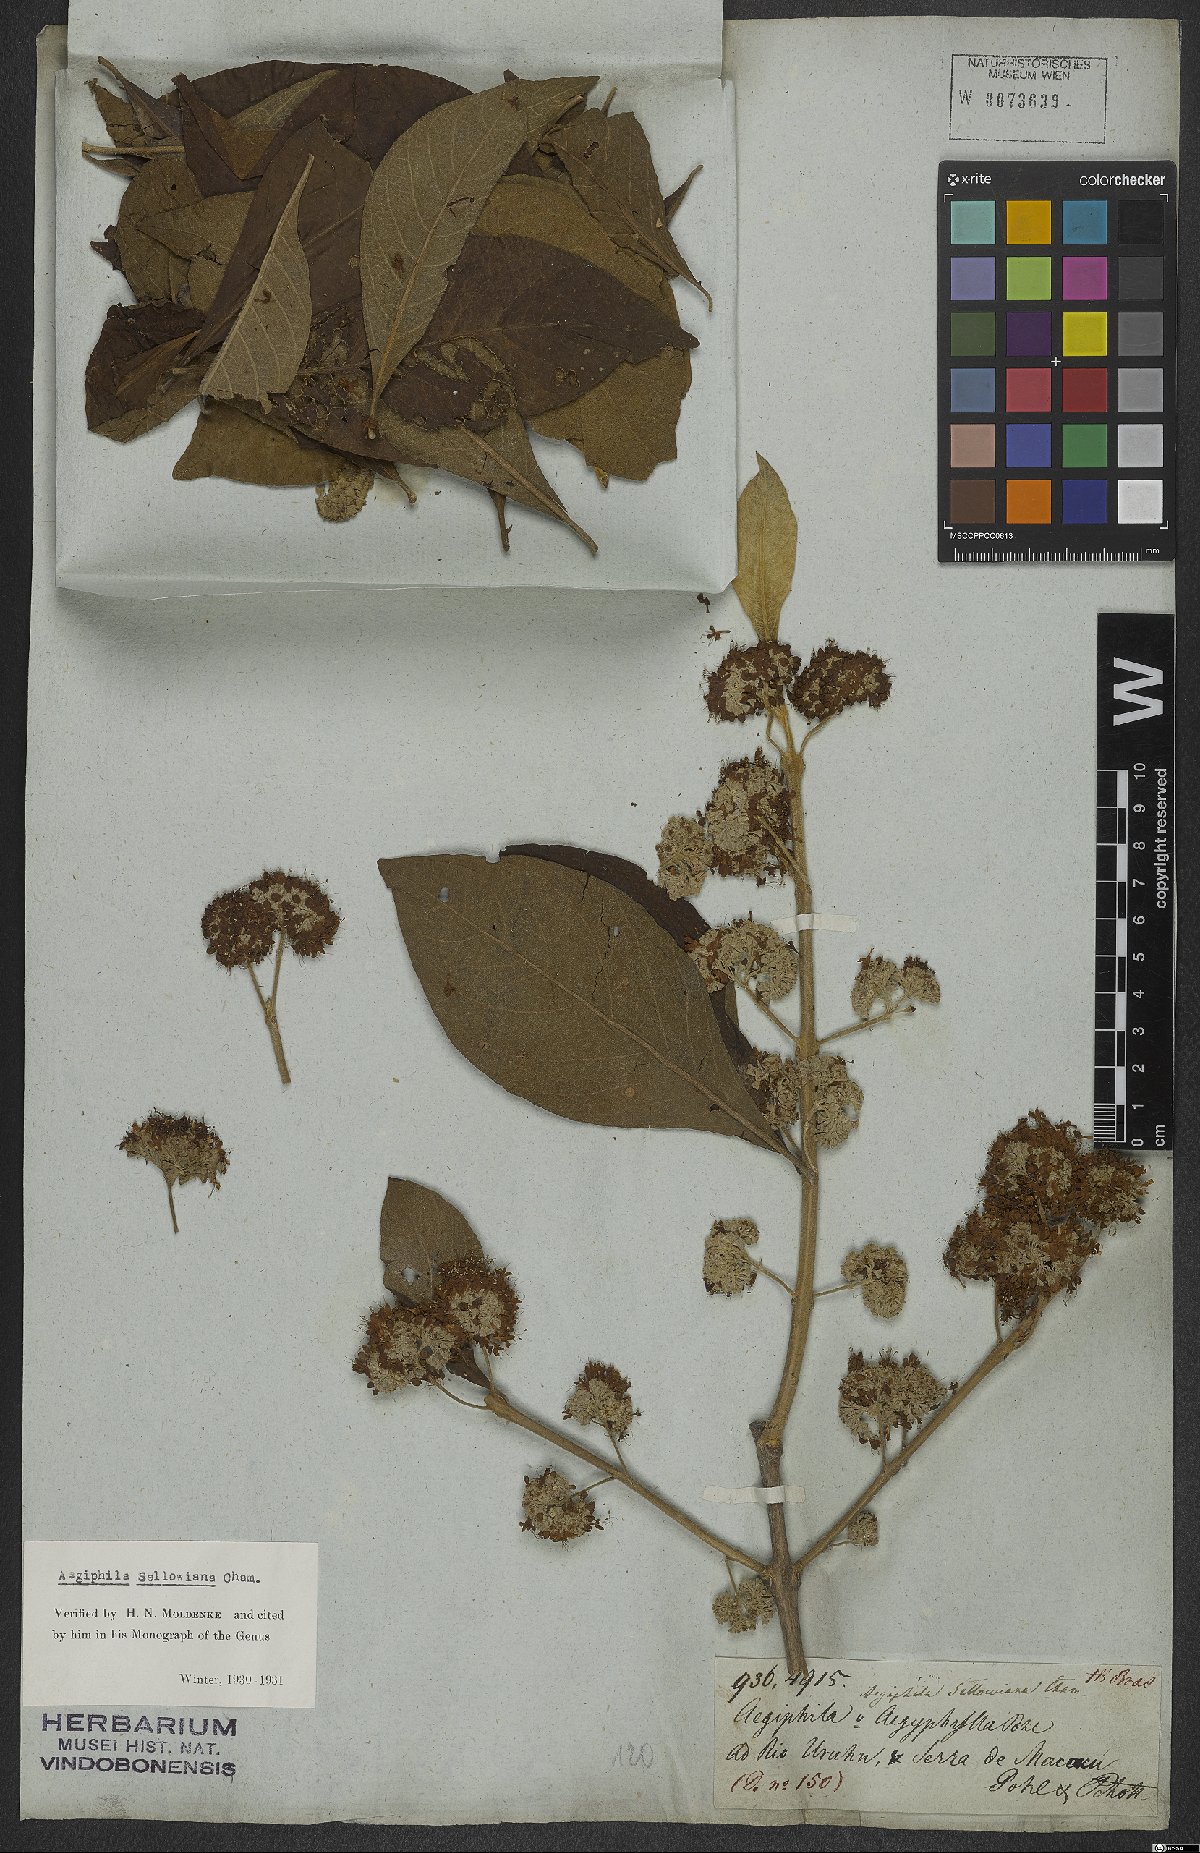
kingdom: Plantae
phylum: Tracheophyta
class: Magnoliopsida
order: Lamiales
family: Lamiaceae
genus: Aegiphila
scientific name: Aegiphila verticillata
